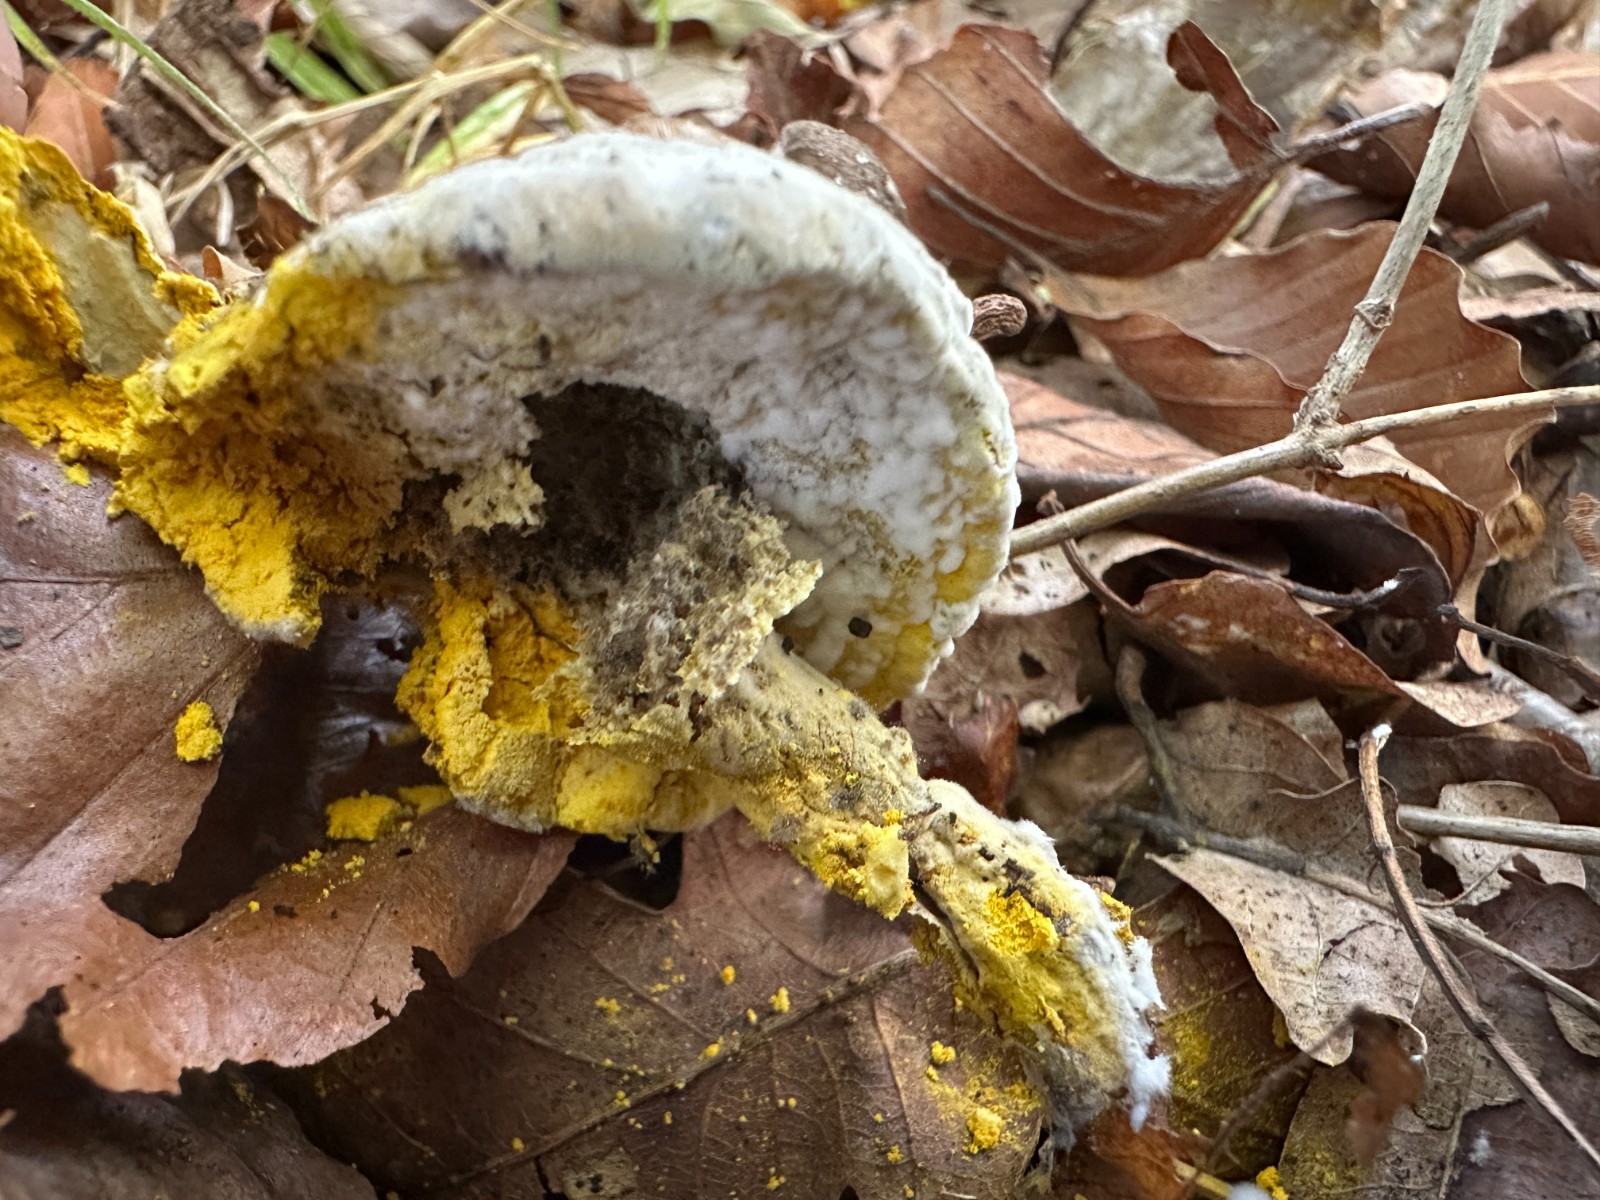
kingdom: Fungi
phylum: Ascomycota
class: Sordariomycetes
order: Hypocreales
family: Hypocreaceae
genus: Hypomyces
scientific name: Hypomyces microspermus
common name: dværgrørhat-snylteskorpe
